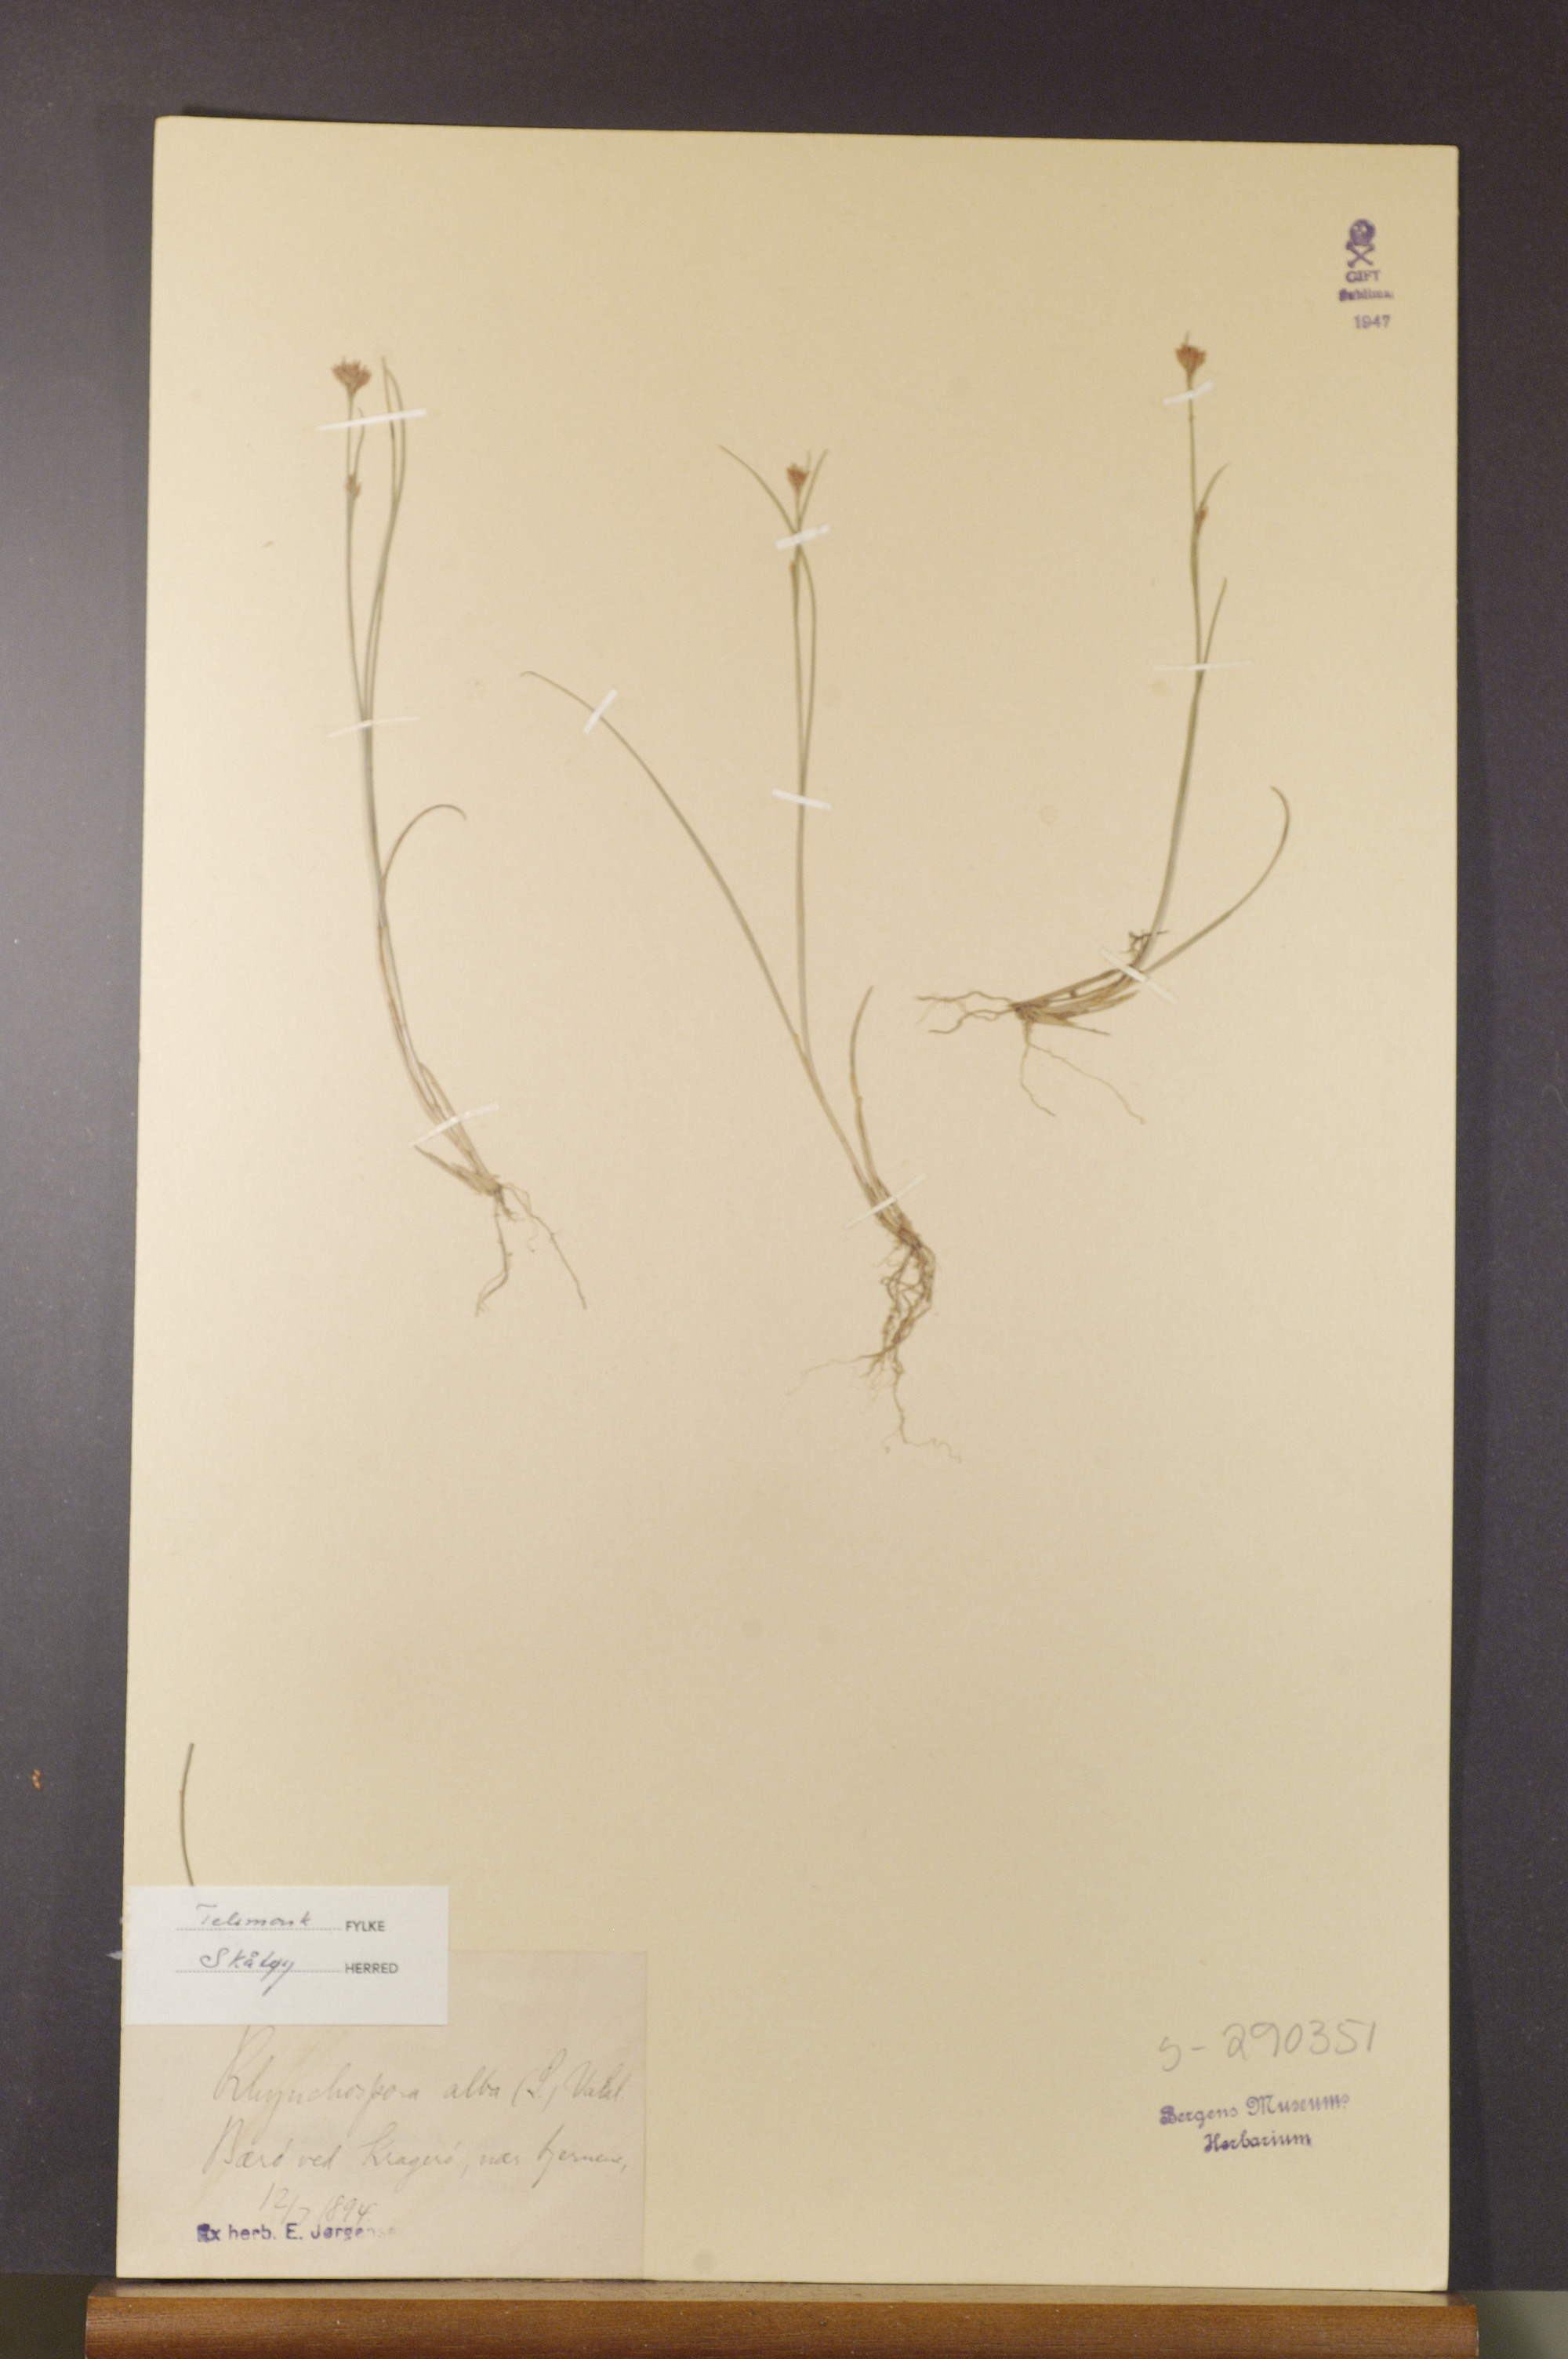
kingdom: Plantae
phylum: Tracheophyta
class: Liliopsida
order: Poales
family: Cyperaceae
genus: Rhynchospora
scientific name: Rhynchospora alba
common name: White beak-sedge
